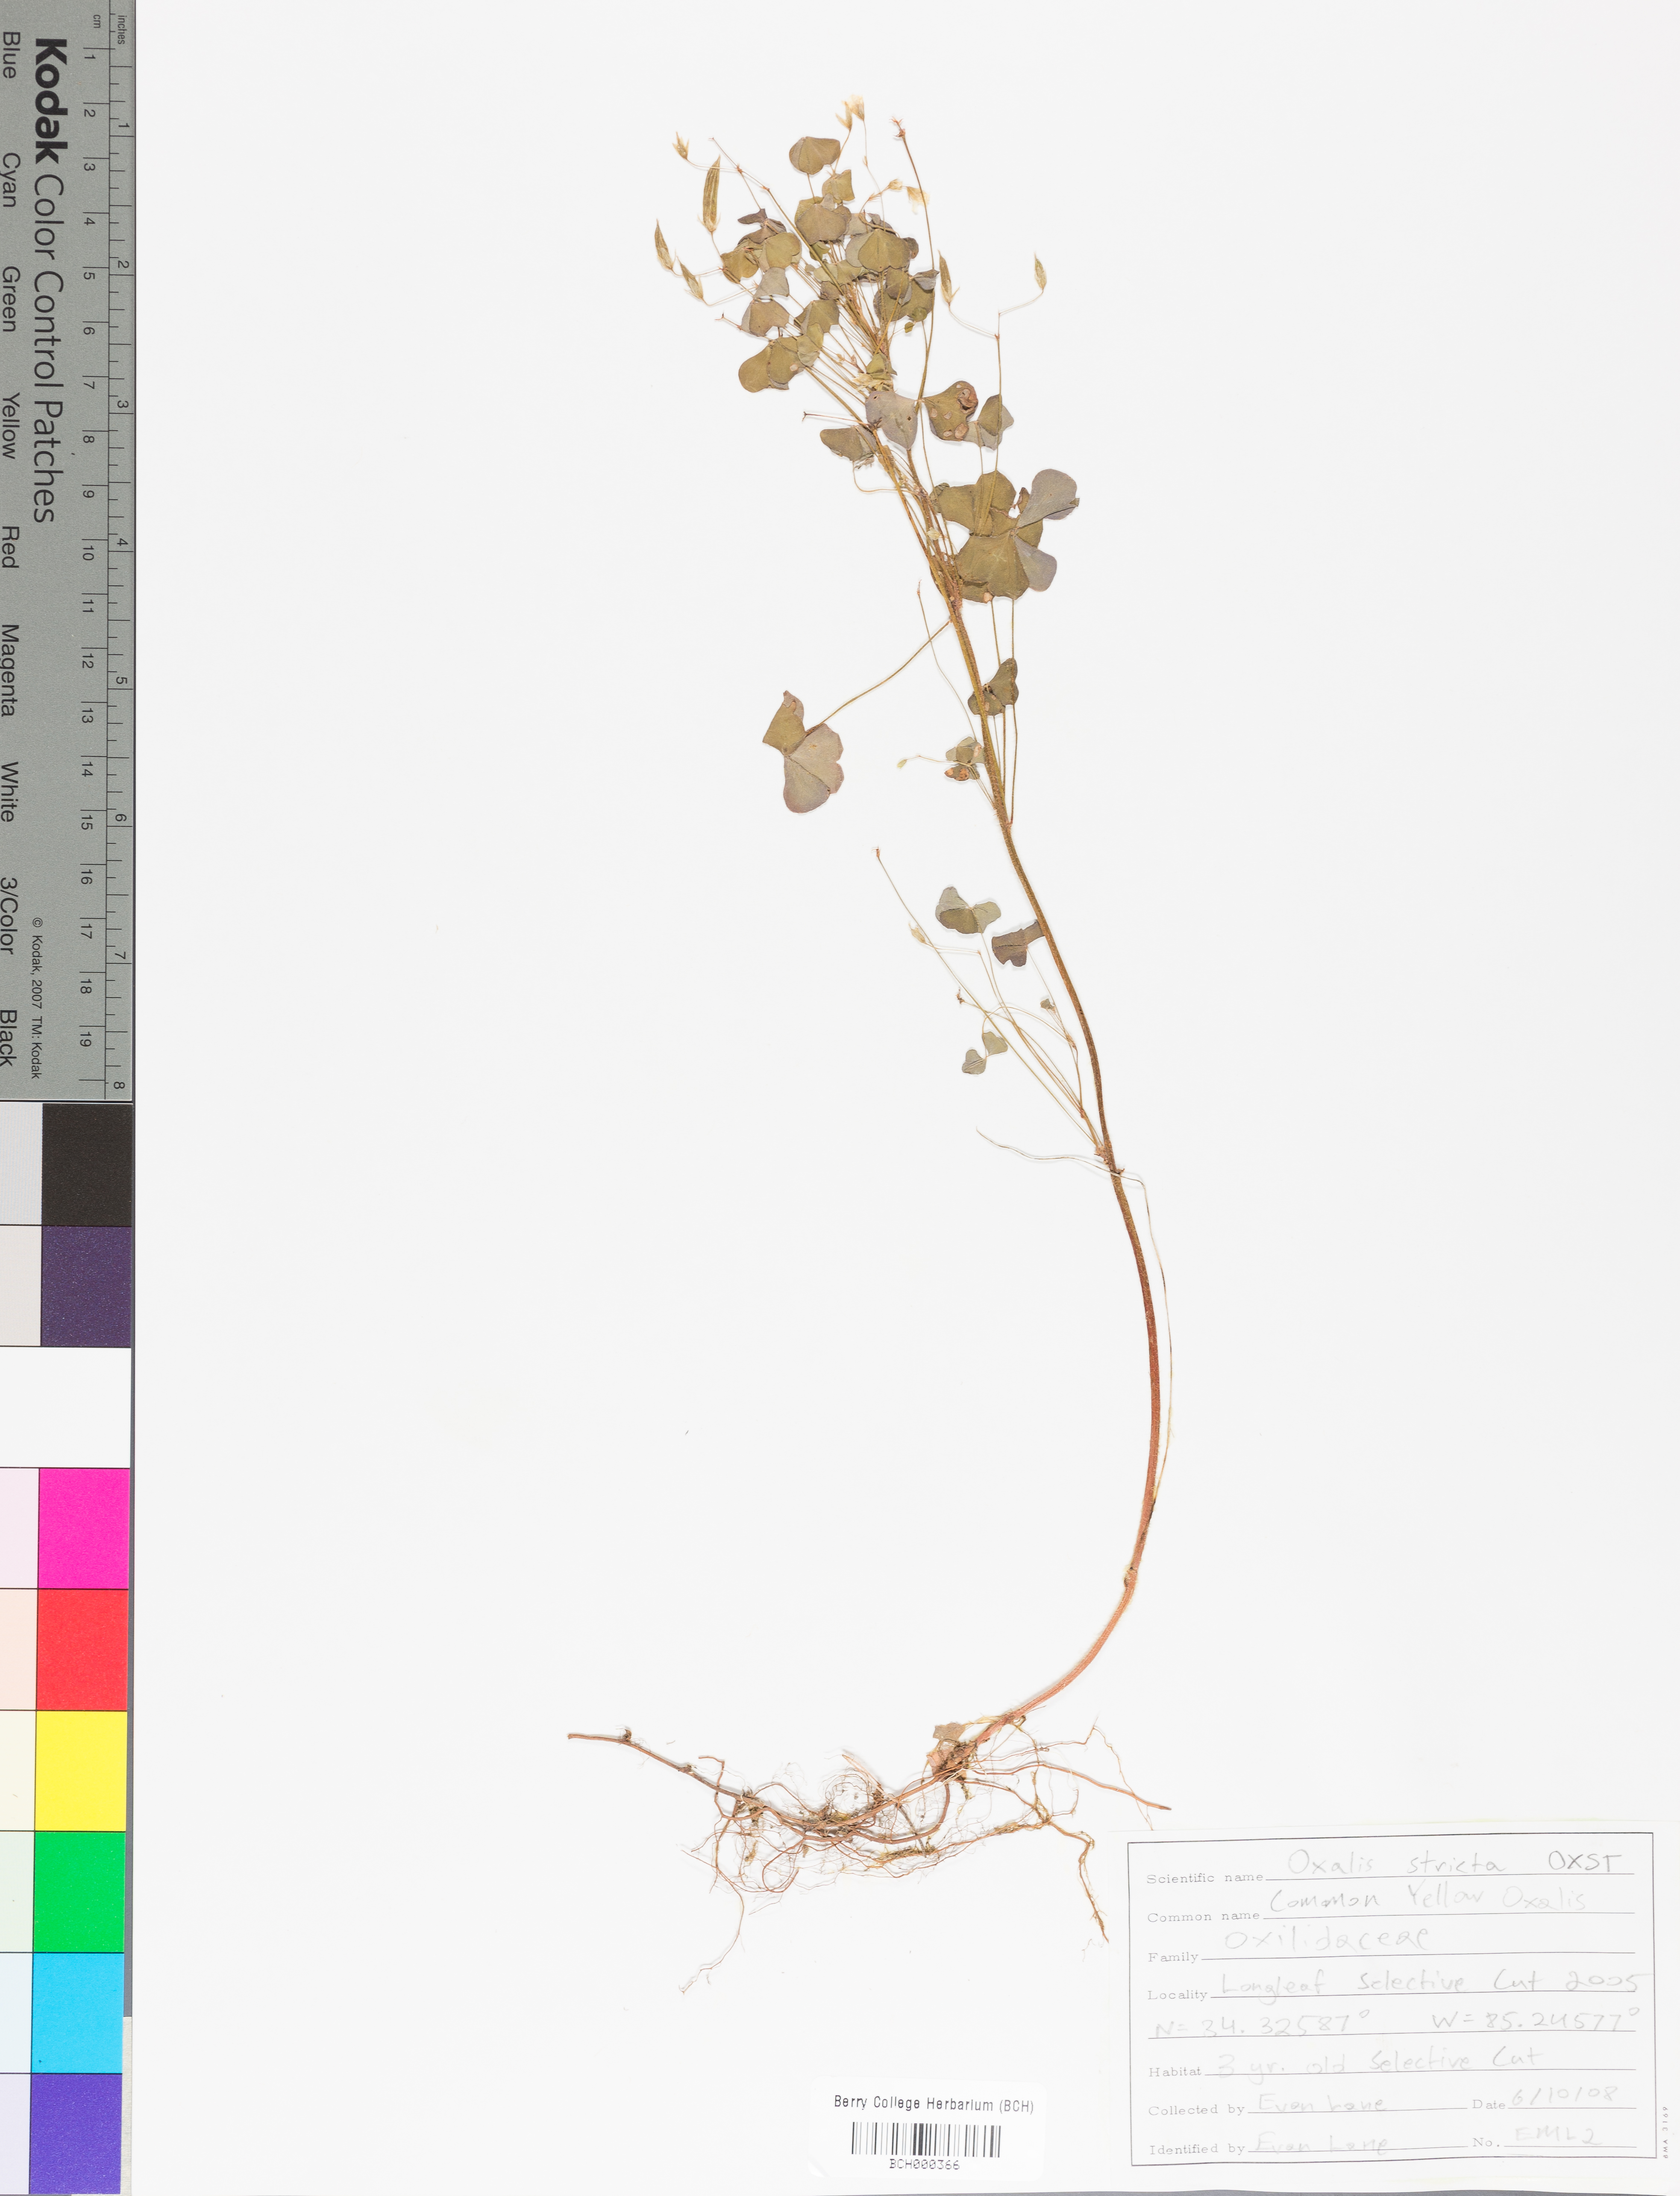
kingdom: Plantae
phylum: Tracheophyta
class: Magnoliopsida
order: Oxalidales
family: Oxalidaceae
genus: Oxalis
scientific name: Oxalis stricta
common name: Upright yellow-sorrel
